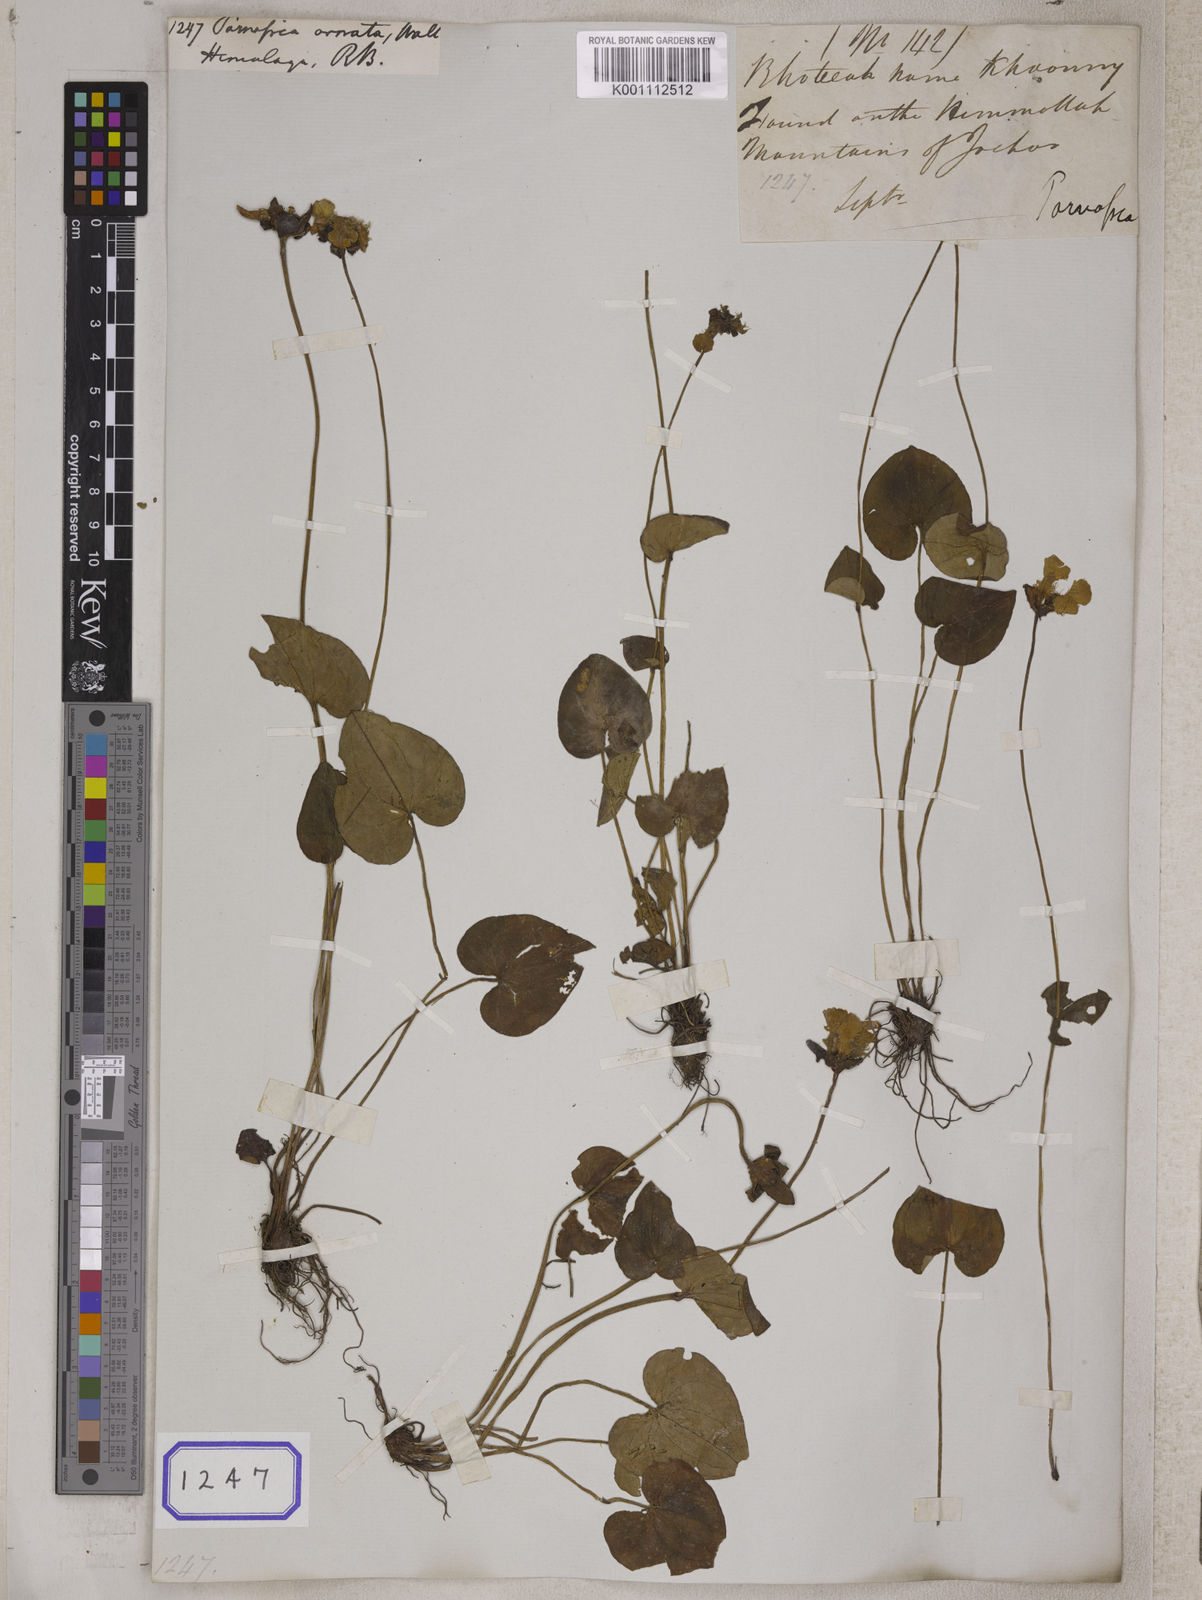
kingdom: Plantae
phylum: Tracheophyta
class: Magnoliopsida
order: Celastrales
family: Parnassiaceae
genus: Parnassia
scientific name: Parnassia
